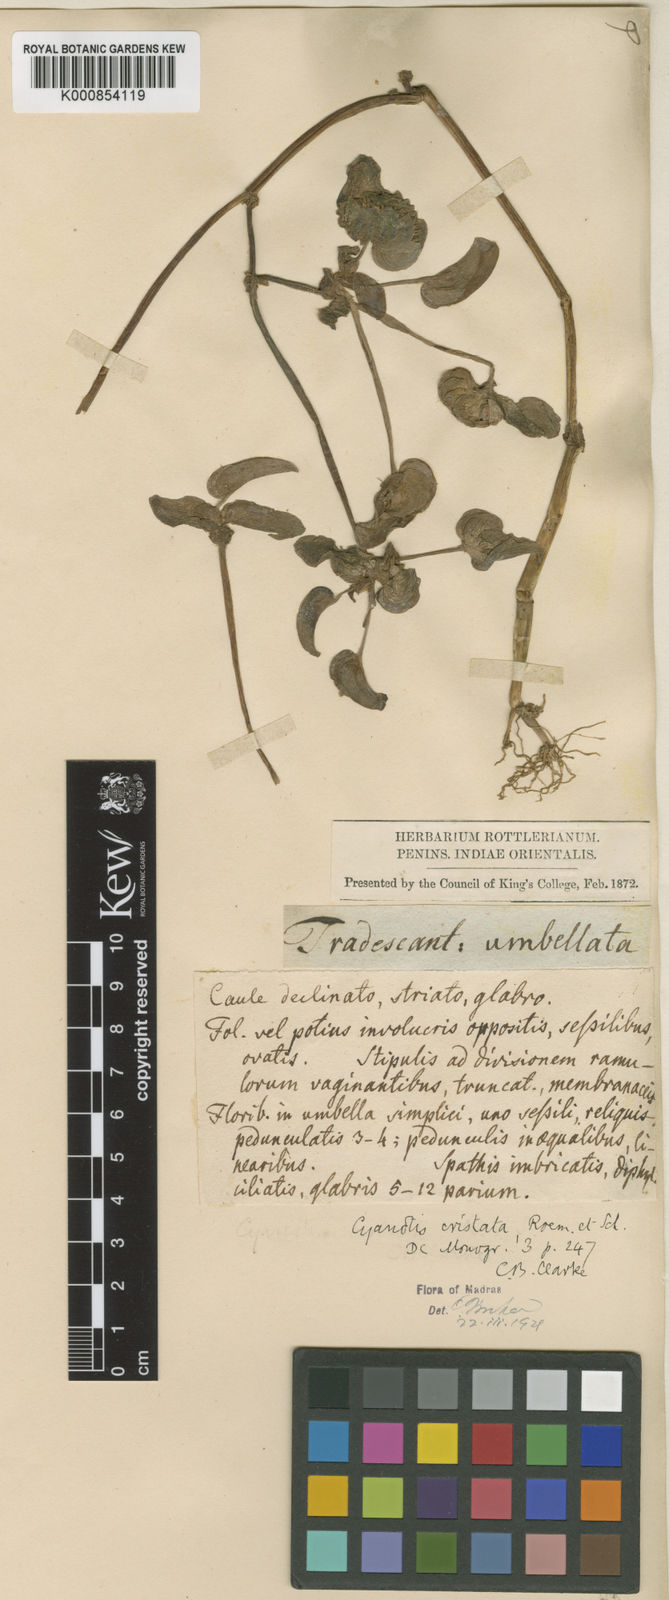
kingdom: Plantae
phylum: Tracheophyta
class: Liliopsida
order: Commelinales
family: Commelinaceae
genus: Cyanotis
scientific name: Cyanotis cristata
